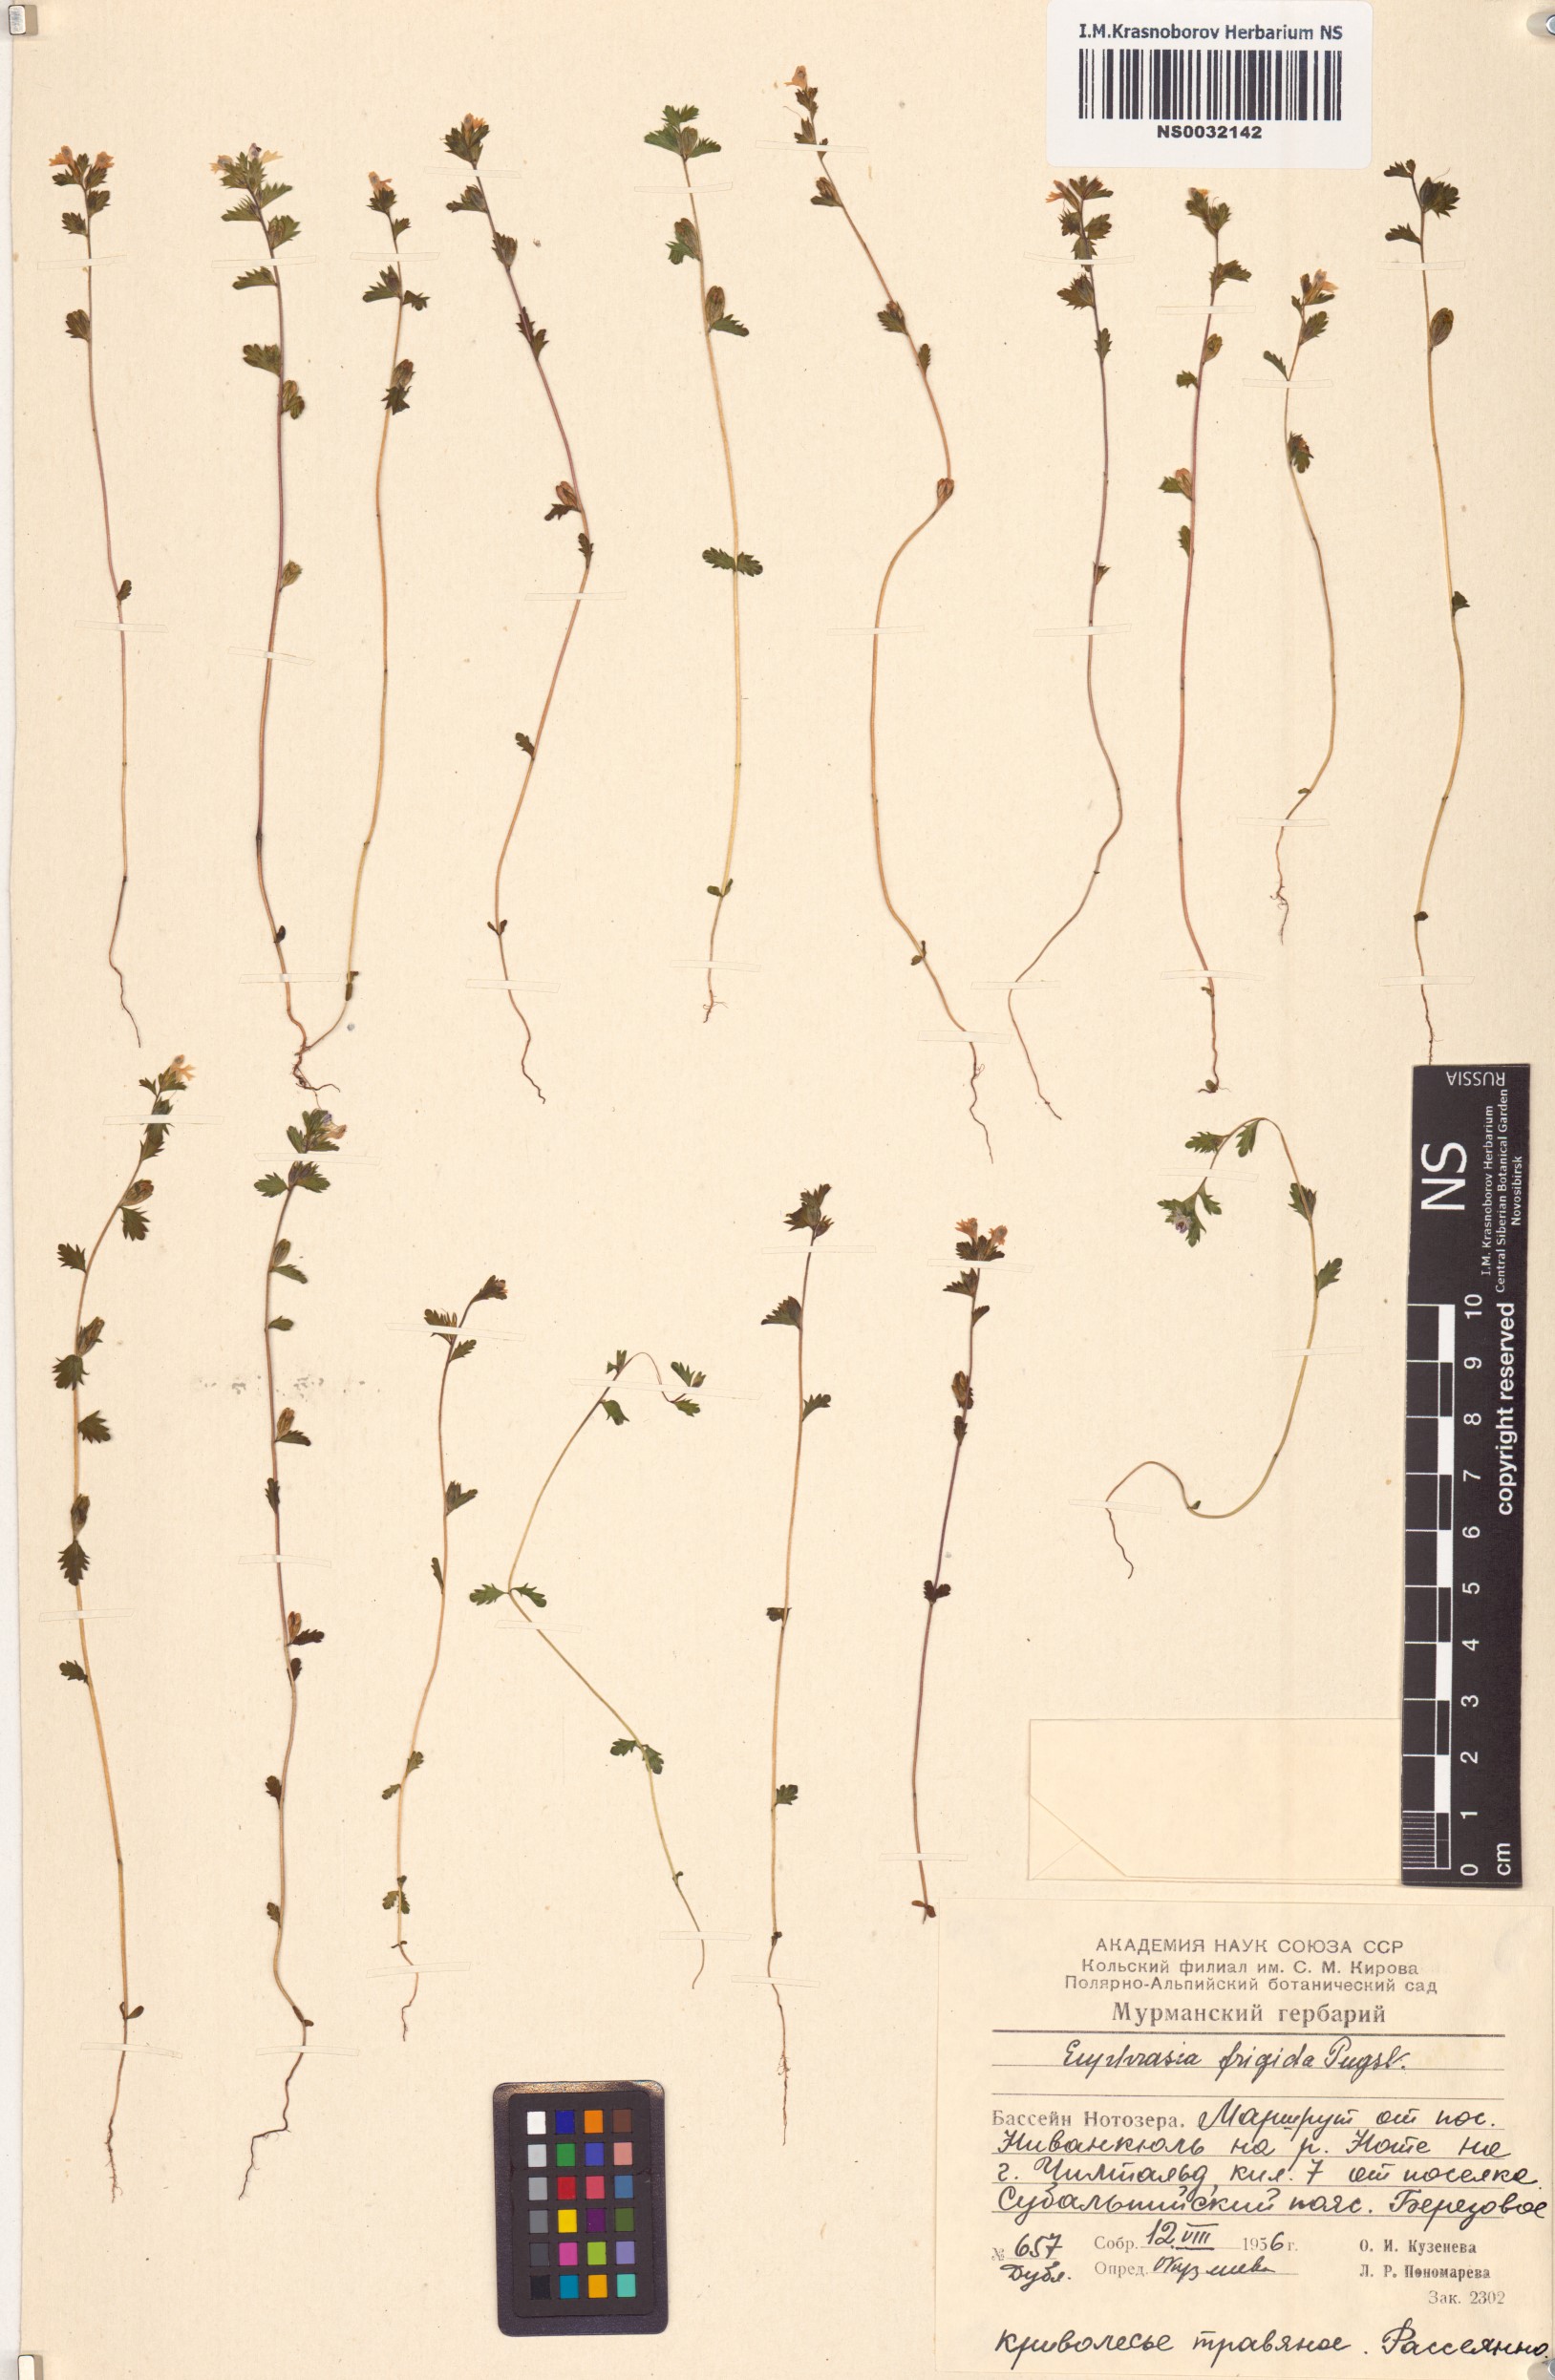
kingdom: Plantae
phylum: Tracheophyta
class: Magnoliopsida
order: Lamiales
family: Orobanchaceae
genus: Euphrasia
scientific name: Euphrasia frigida
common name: An eyebright
